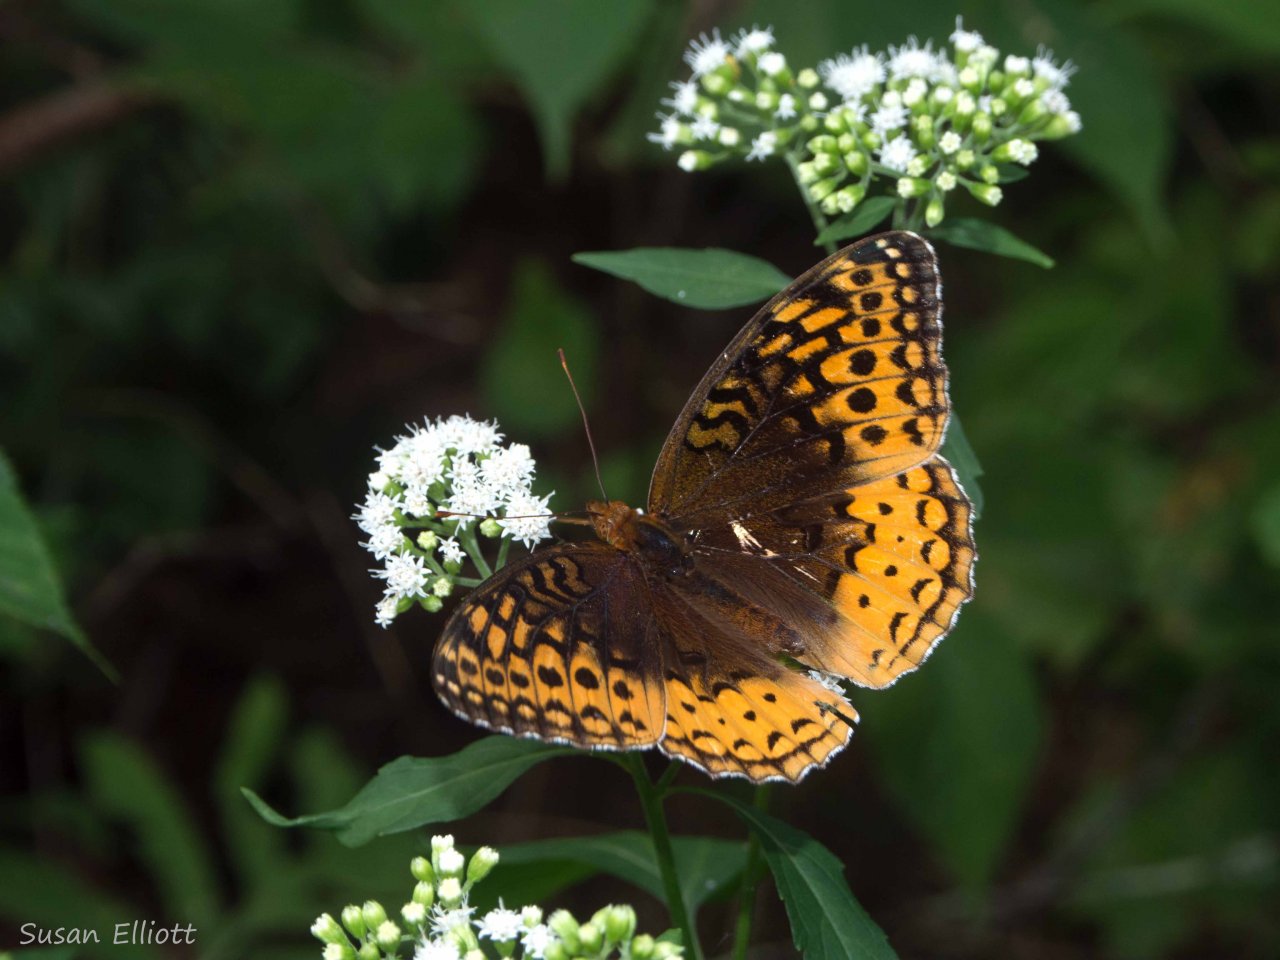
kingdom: Animalia
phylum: Arthropoda
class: Insecta
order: Lepidoptera
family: Nymphalidae
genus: Speyeria
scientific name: Speyeria cybele
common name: Great Spangled Fritillary
